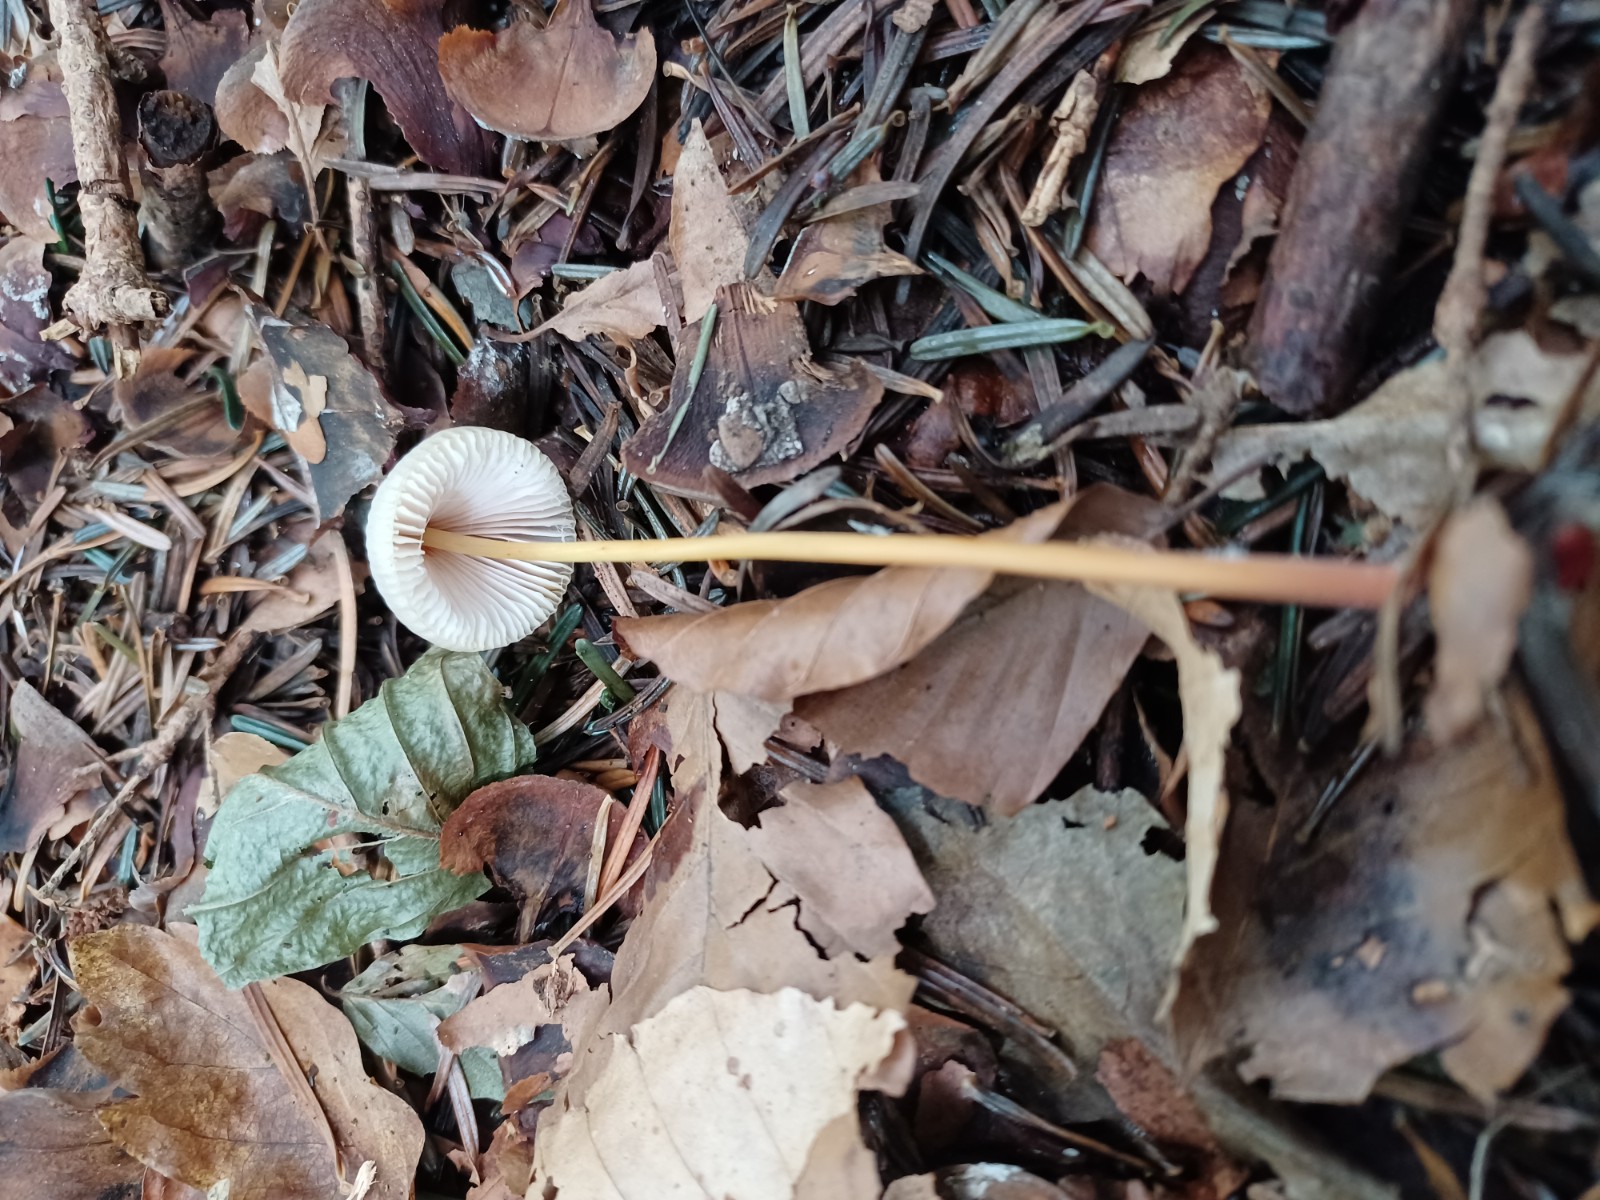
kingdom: Fungi
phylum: Basidiomycota
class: Agaricomycetes
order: Agaricales
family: Mycenaceae
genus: Mycena
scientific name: Mycena crocata
